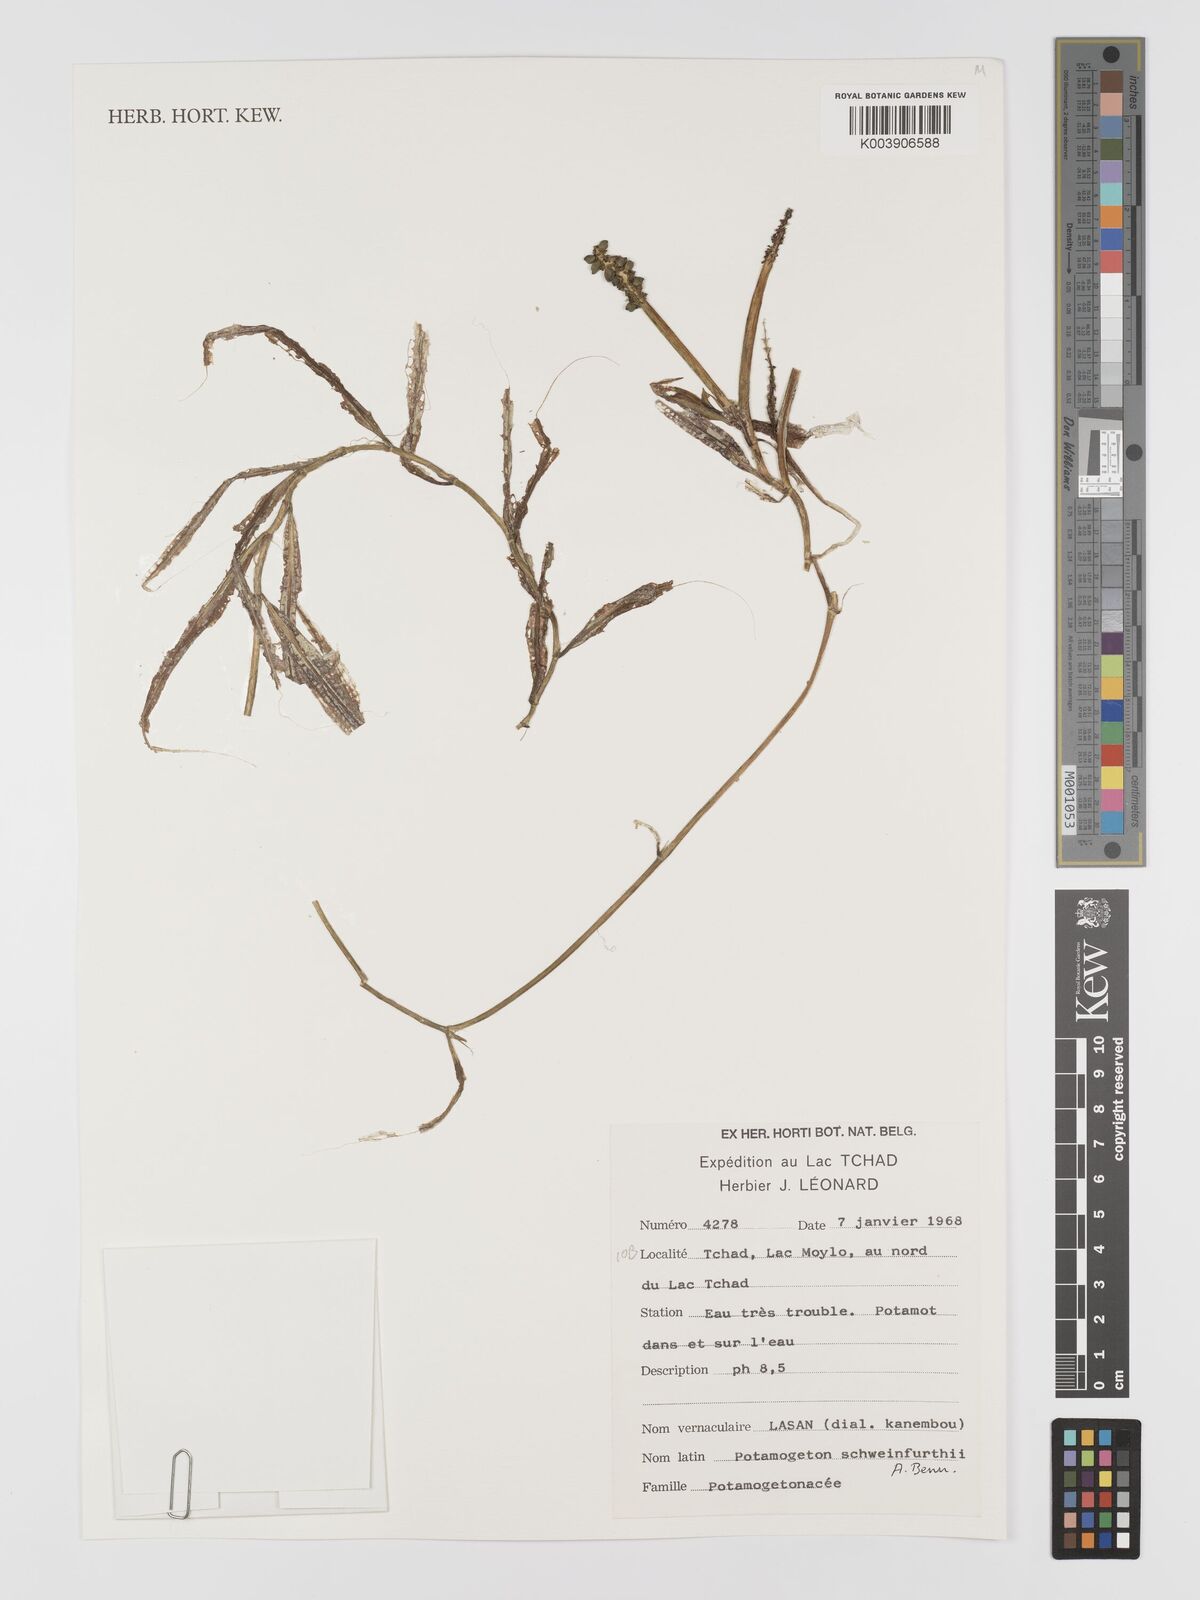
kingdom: Plantae
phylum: Tracheophyta
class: Liliopsida
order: Alismatales
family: Potamogetonaceae
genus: Potamogeton
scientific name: Potamogeton schweinfurthii
